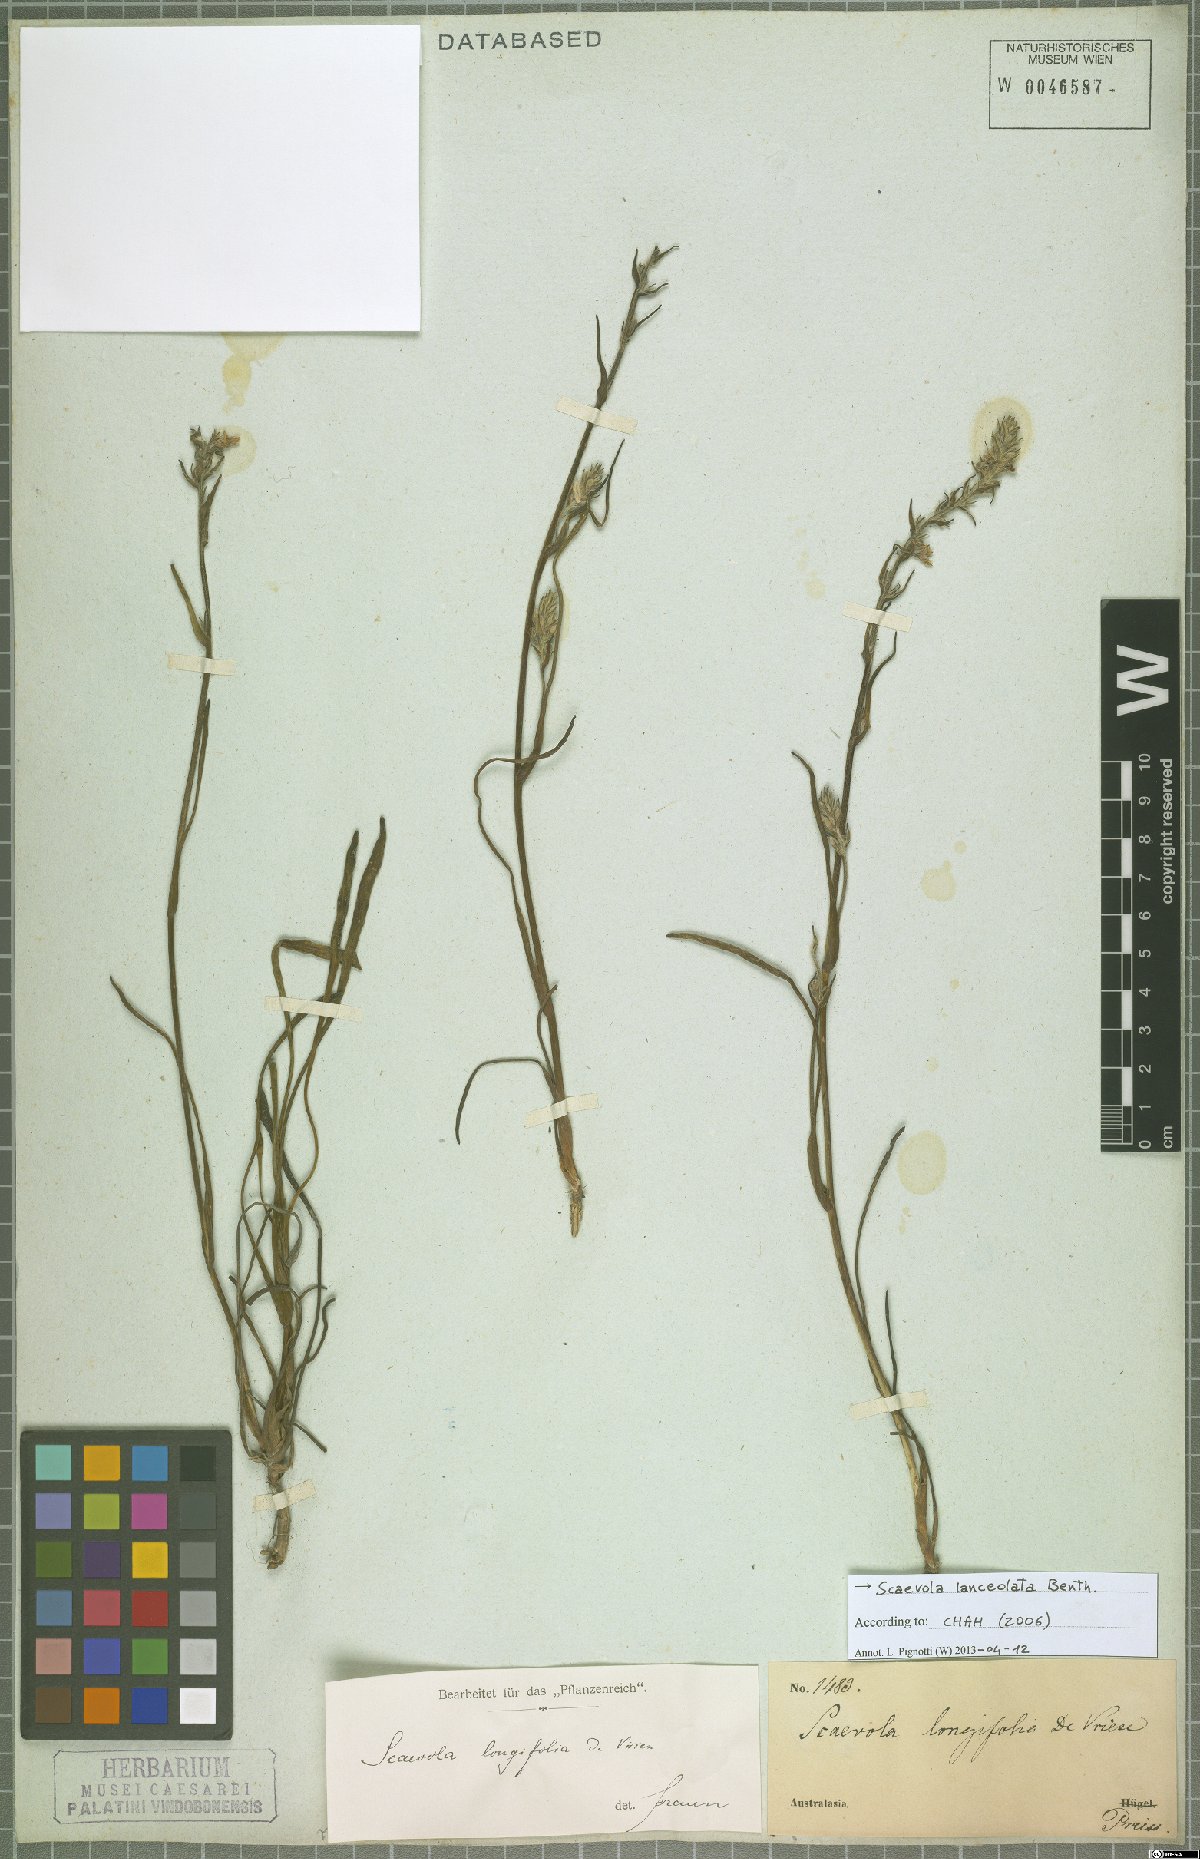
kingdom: Plantae
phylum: Tracheophyta
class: Magnoliopsida
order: Asterales
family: Goodeniaceae
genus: Scaevola
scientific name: Scaevola lanceolata
